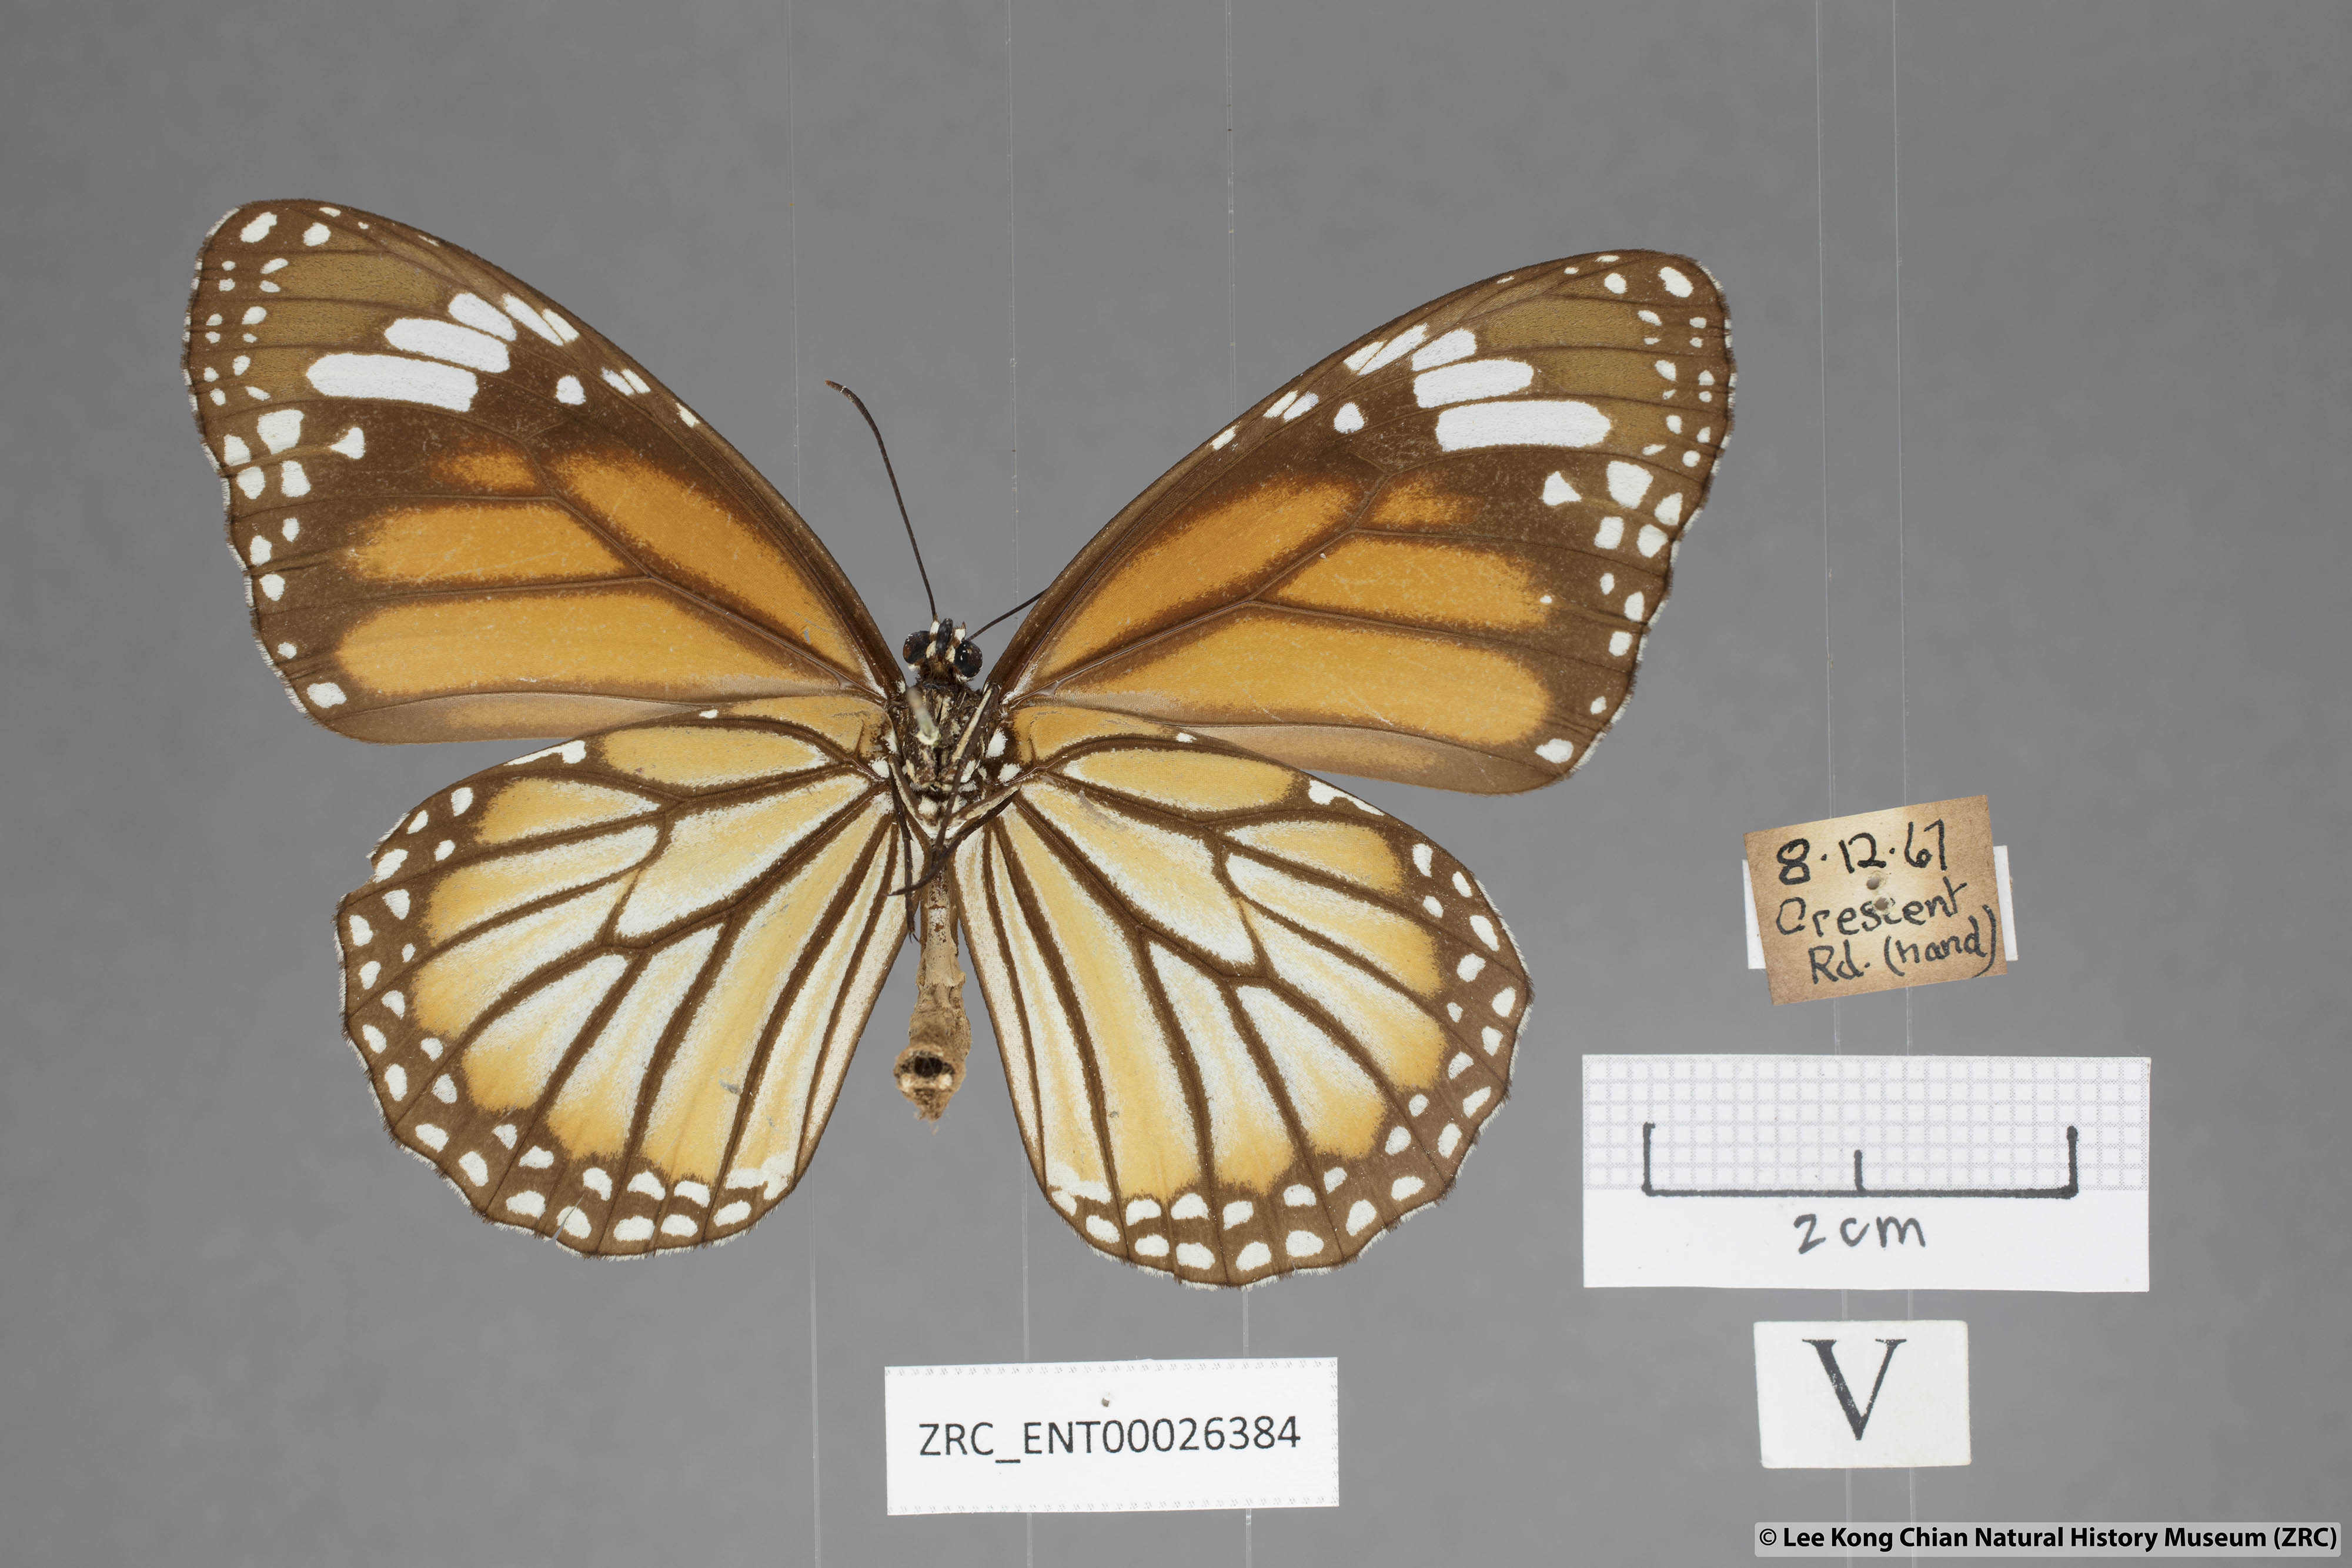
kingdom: Animalia
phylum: Arthropoda
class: Insecta
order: Lepidoptera
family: Nymphalidae
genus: Danaus
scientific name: Danaus genutia
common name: Common tiger butterfly
